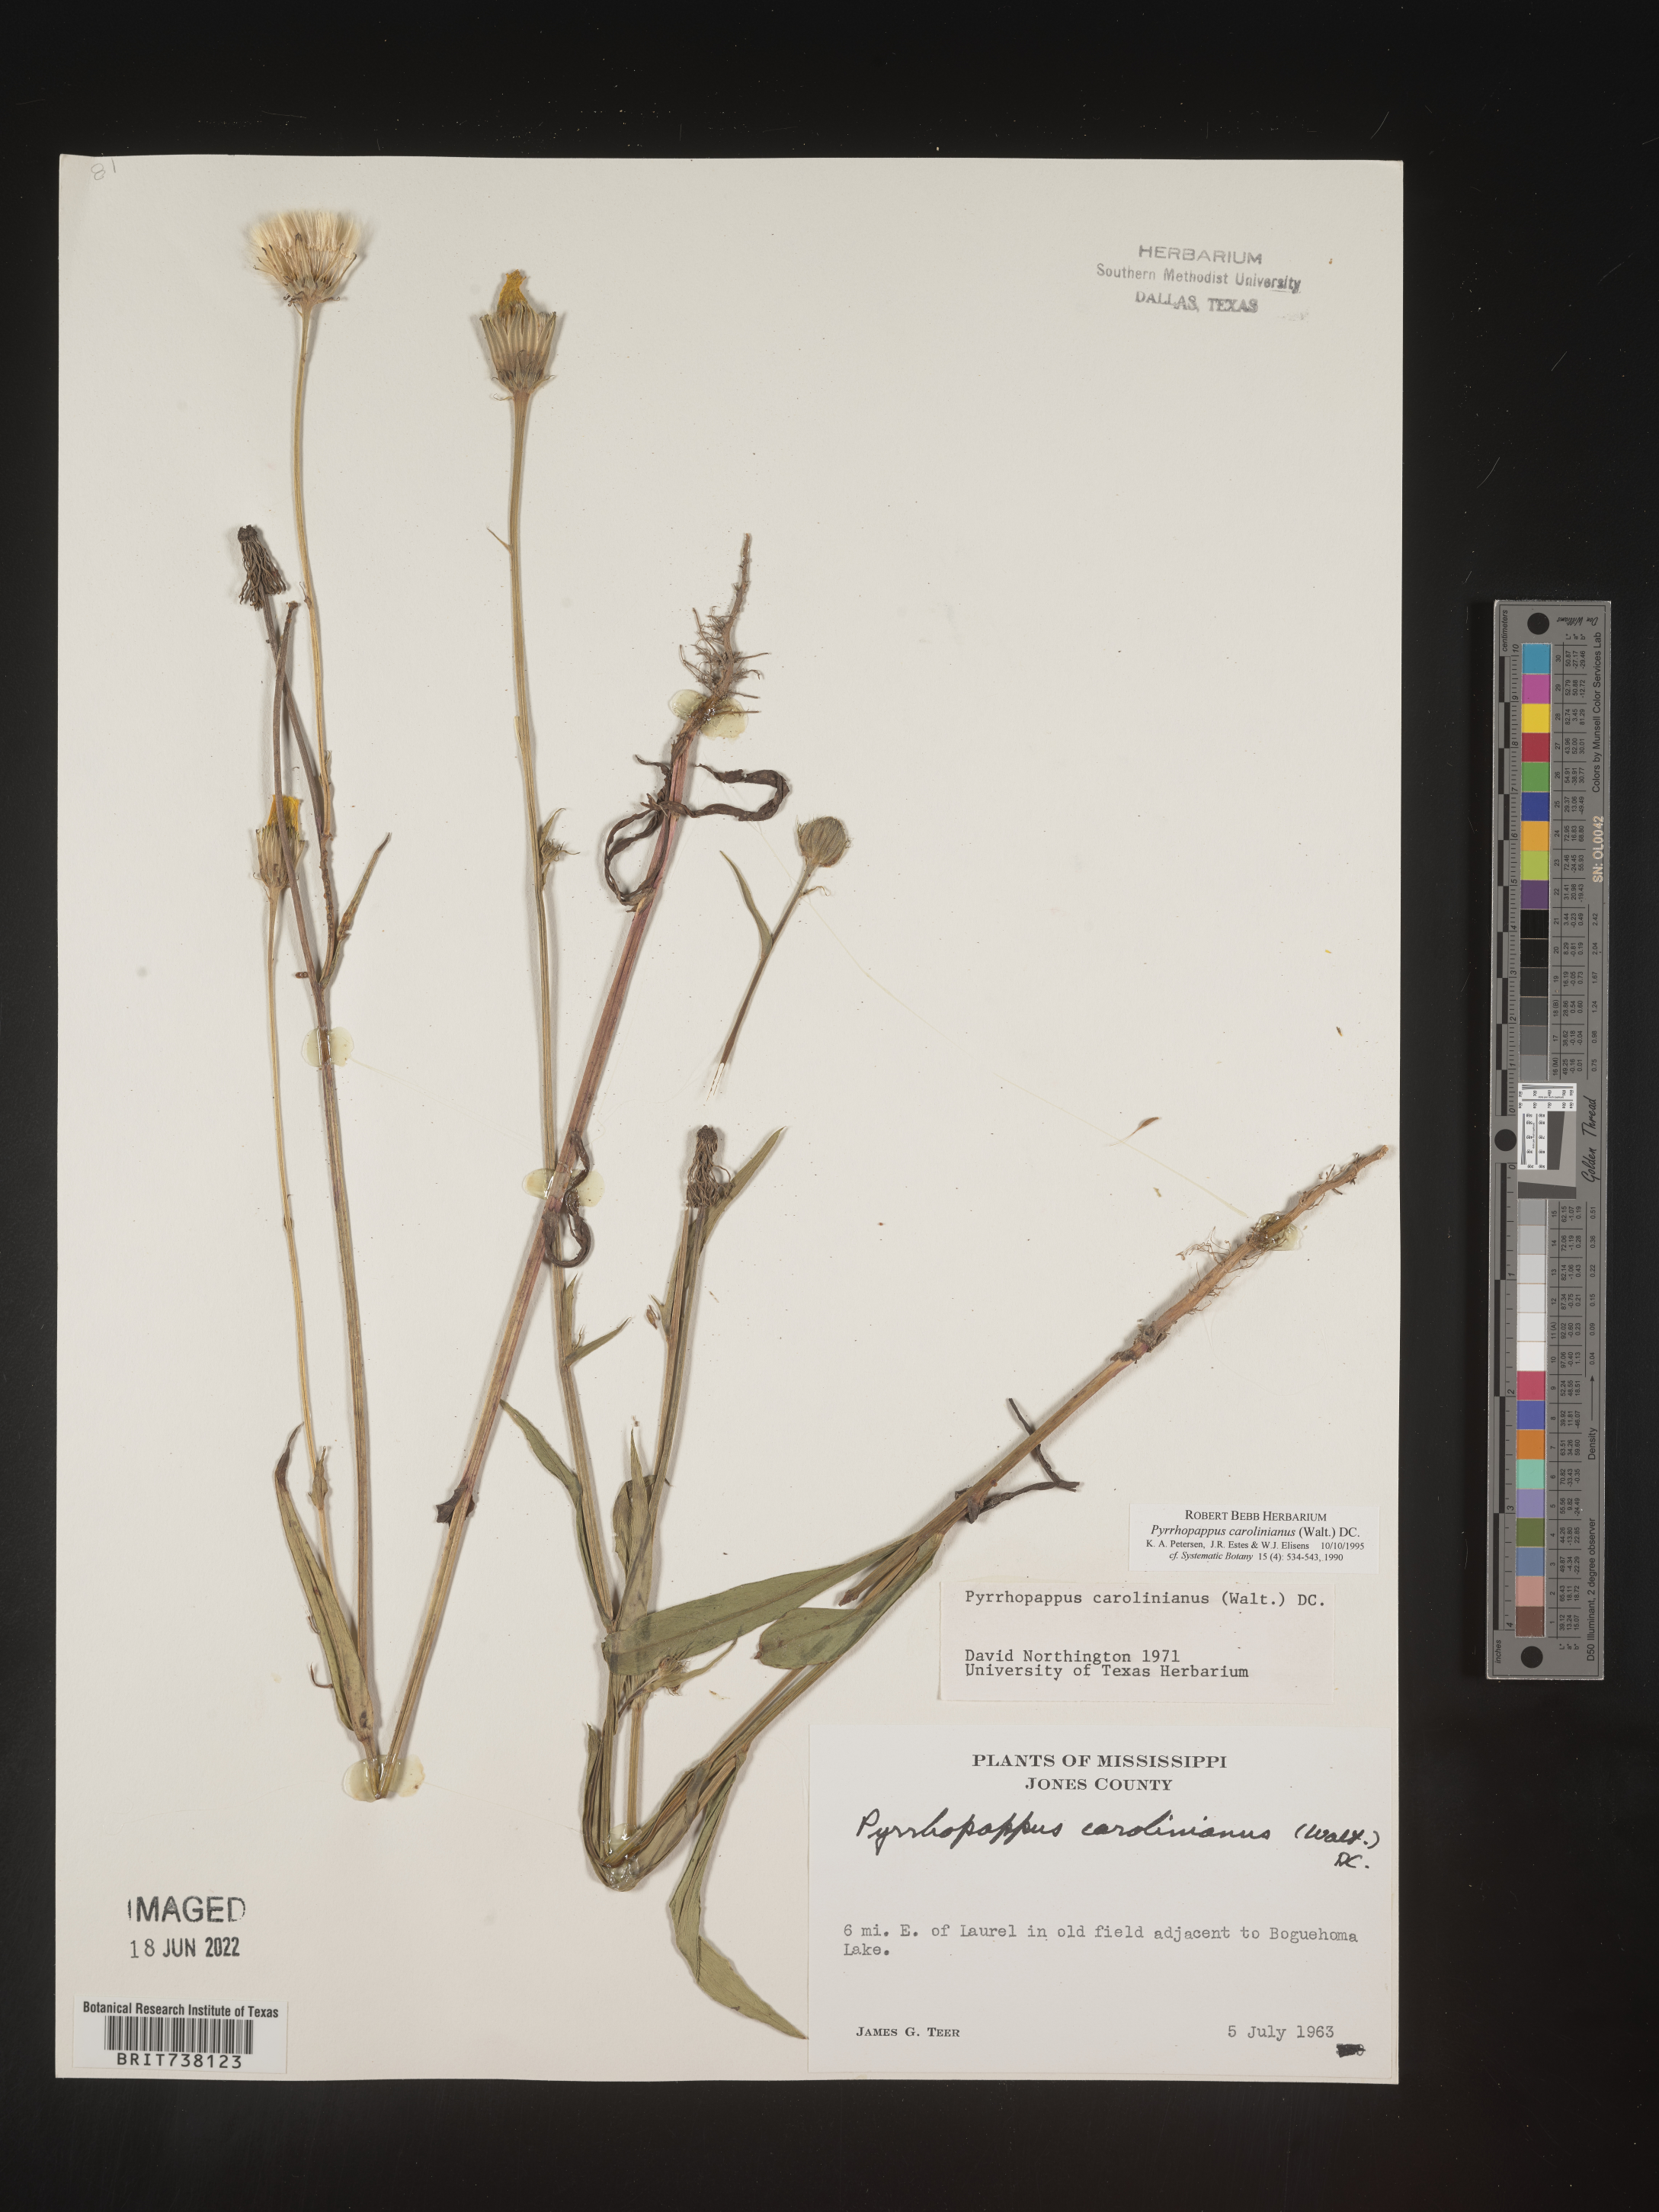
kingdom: Plantae
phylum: Tracheophyta
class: Magnoliopsida
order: Asterales
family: Asteraceae
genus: Pyrrhopappus
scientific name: Pyrrhopappus carolinianus
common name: Carolina desert-chicory
